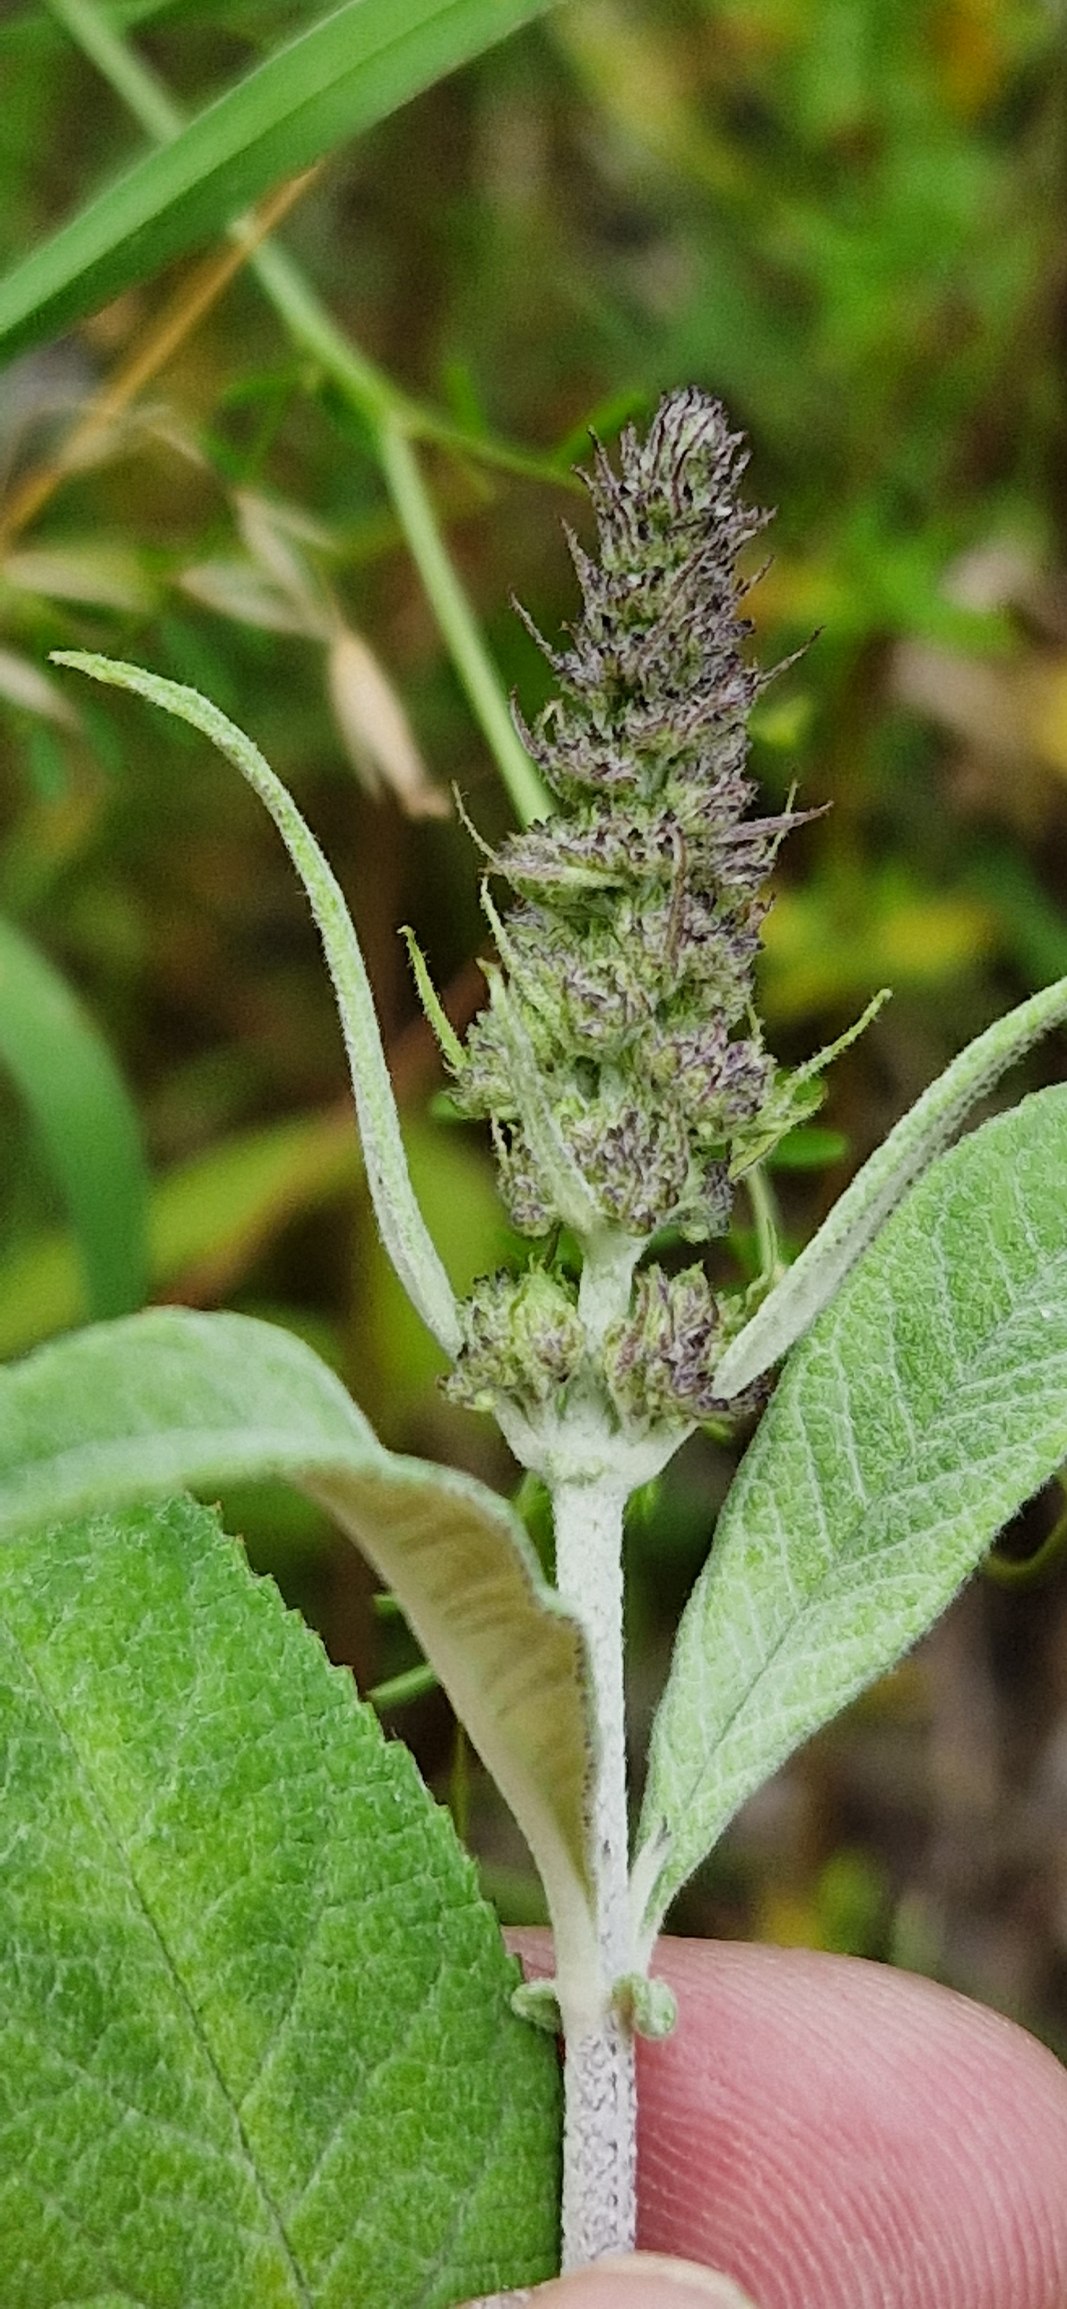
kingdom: Plantae
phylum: Tracheophyta
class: Magnoliopsida
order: Lamiales
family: Scrophulariaceae
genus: Buddleja
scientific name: Buddleja davidii
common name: Sommerfuglebusk
